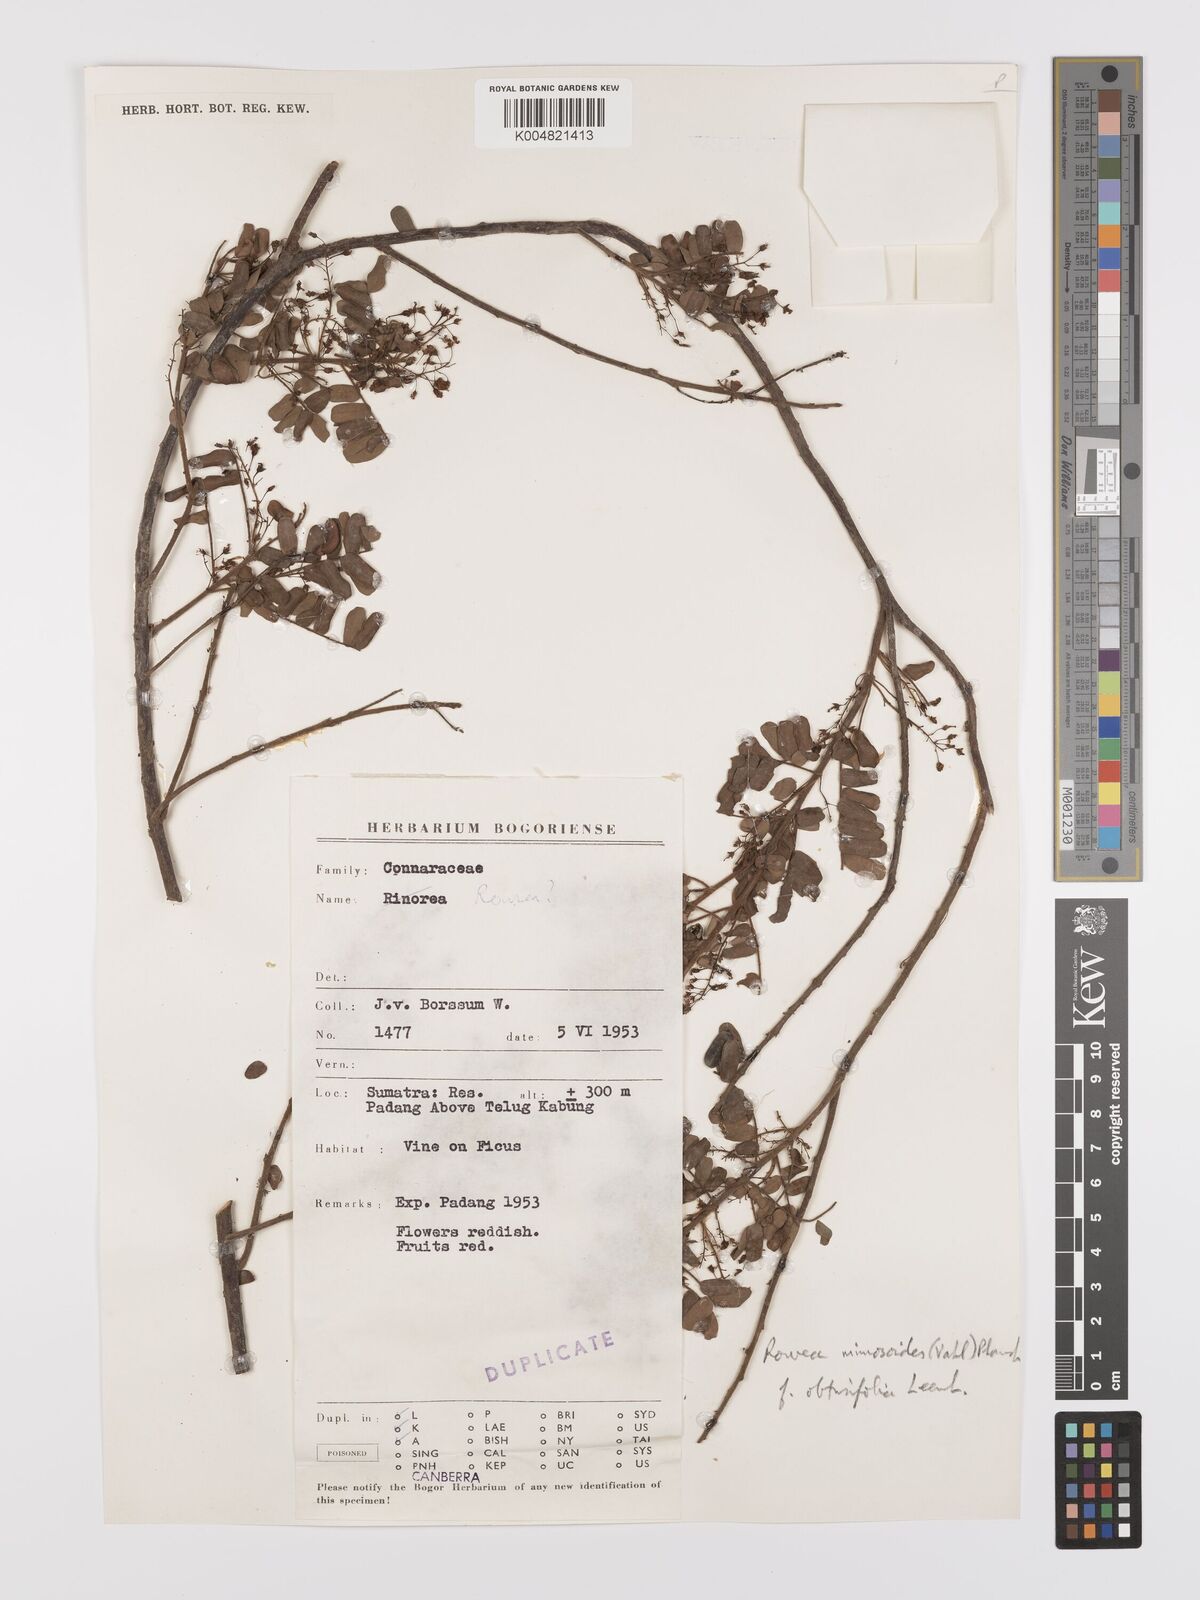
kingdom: Plantae
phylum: Tracheophyta
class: Magnoliopsida
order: Oxalidales
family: Connaraceae
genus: Rourea
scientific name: Rourea mimosoides
